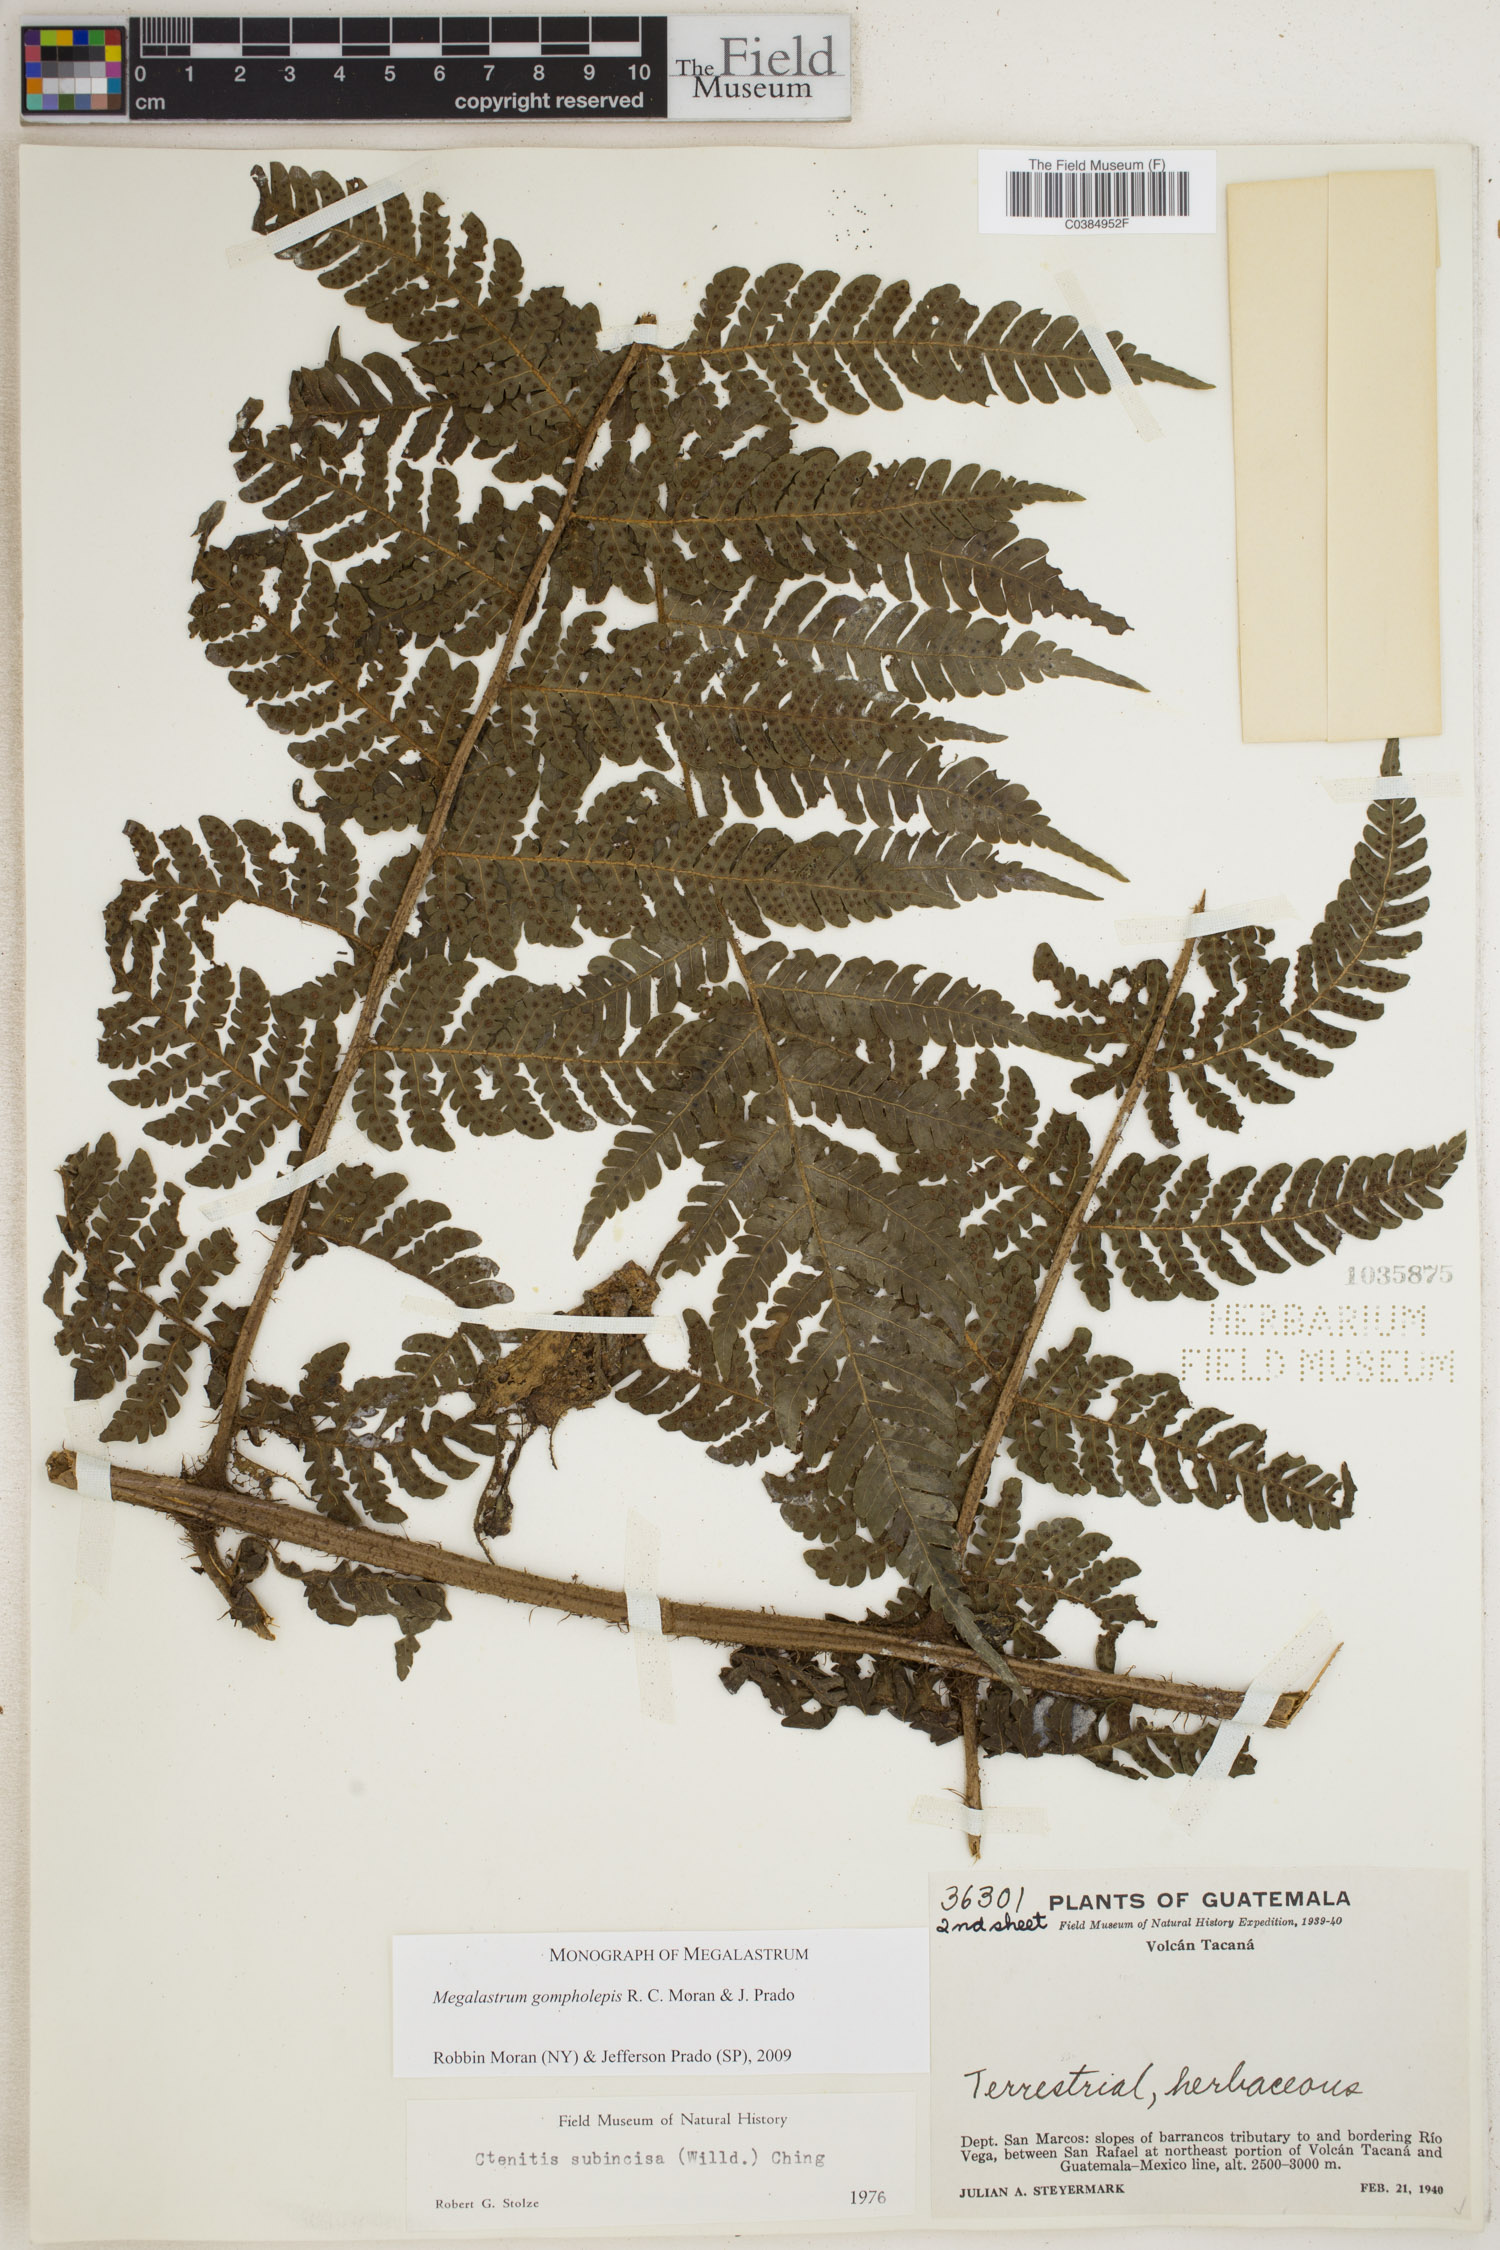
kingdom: Plantae
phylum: Tracheophyta
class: Polypodiopsida
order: Polypodiales
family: Dryopteridaceae
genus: Megalastrum
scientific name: Megalastrum gompholepis
